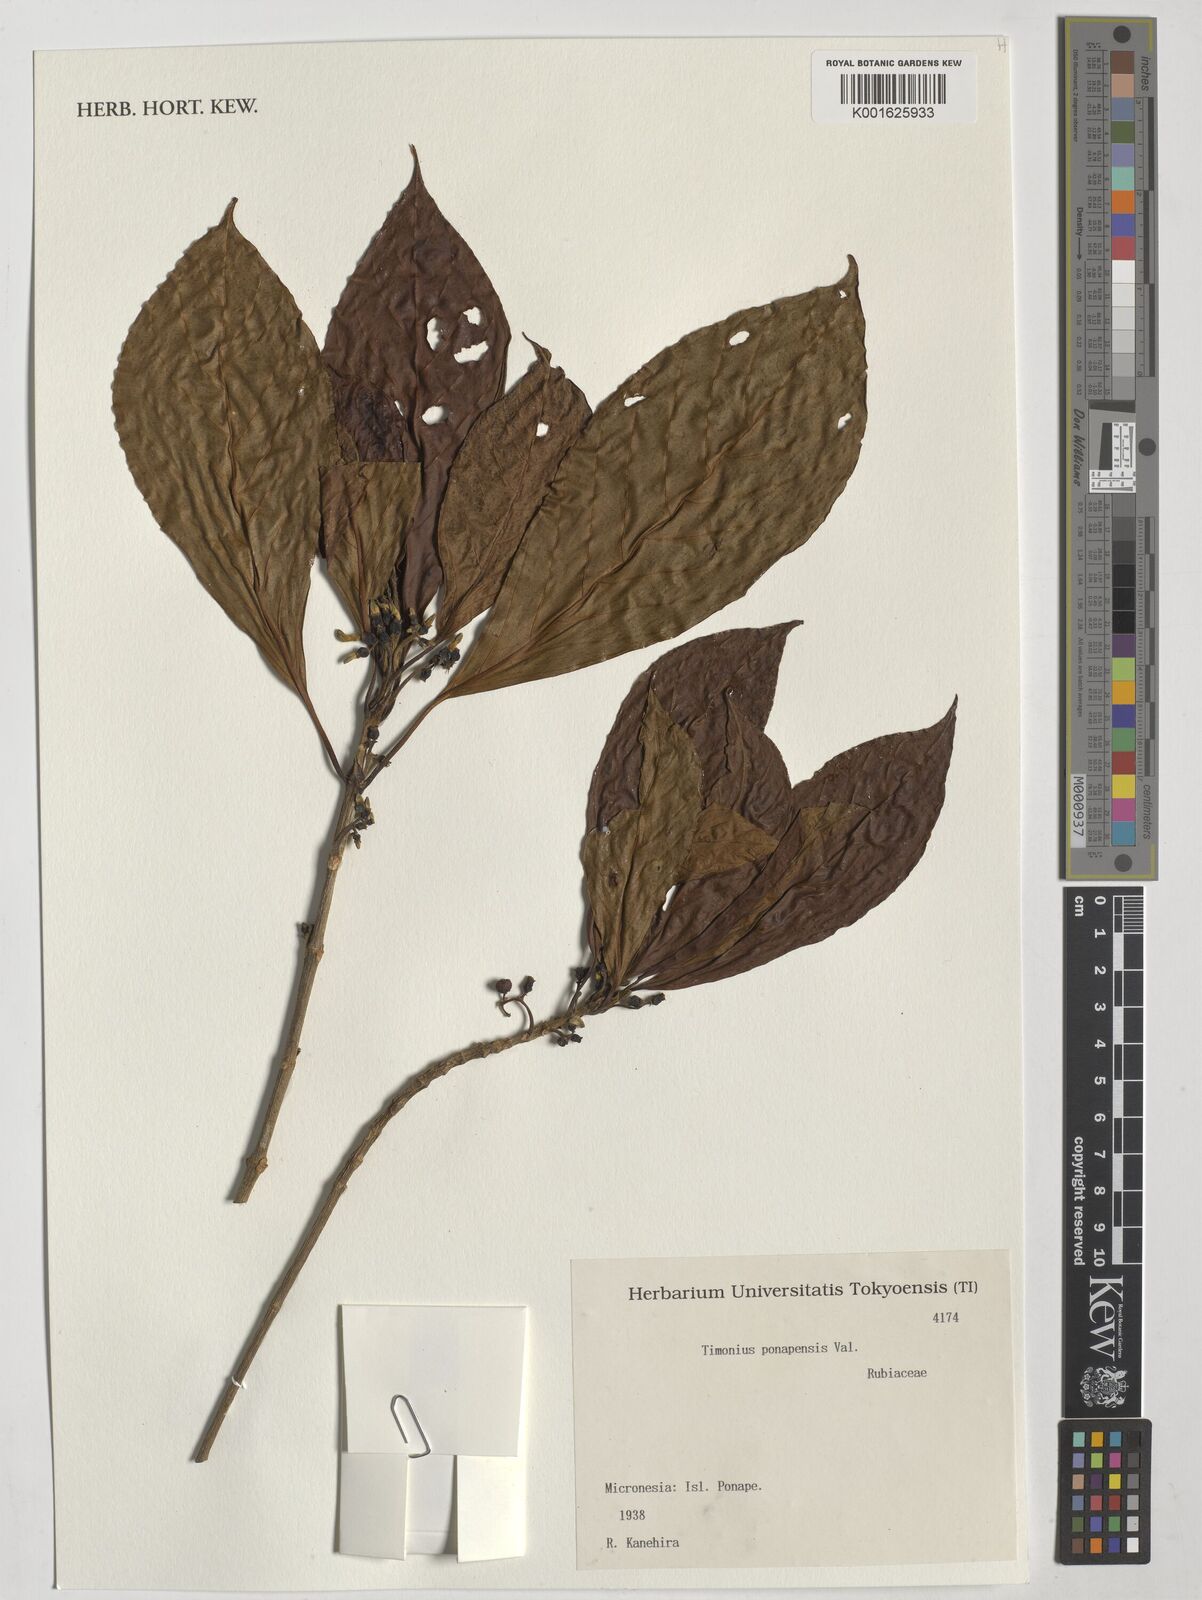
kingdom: Plantae
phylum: Tracheophyta
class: Magnoliopsida
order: Gentianales
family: Rubiaceae
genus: Timonius
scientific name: Timonius ponapensis
